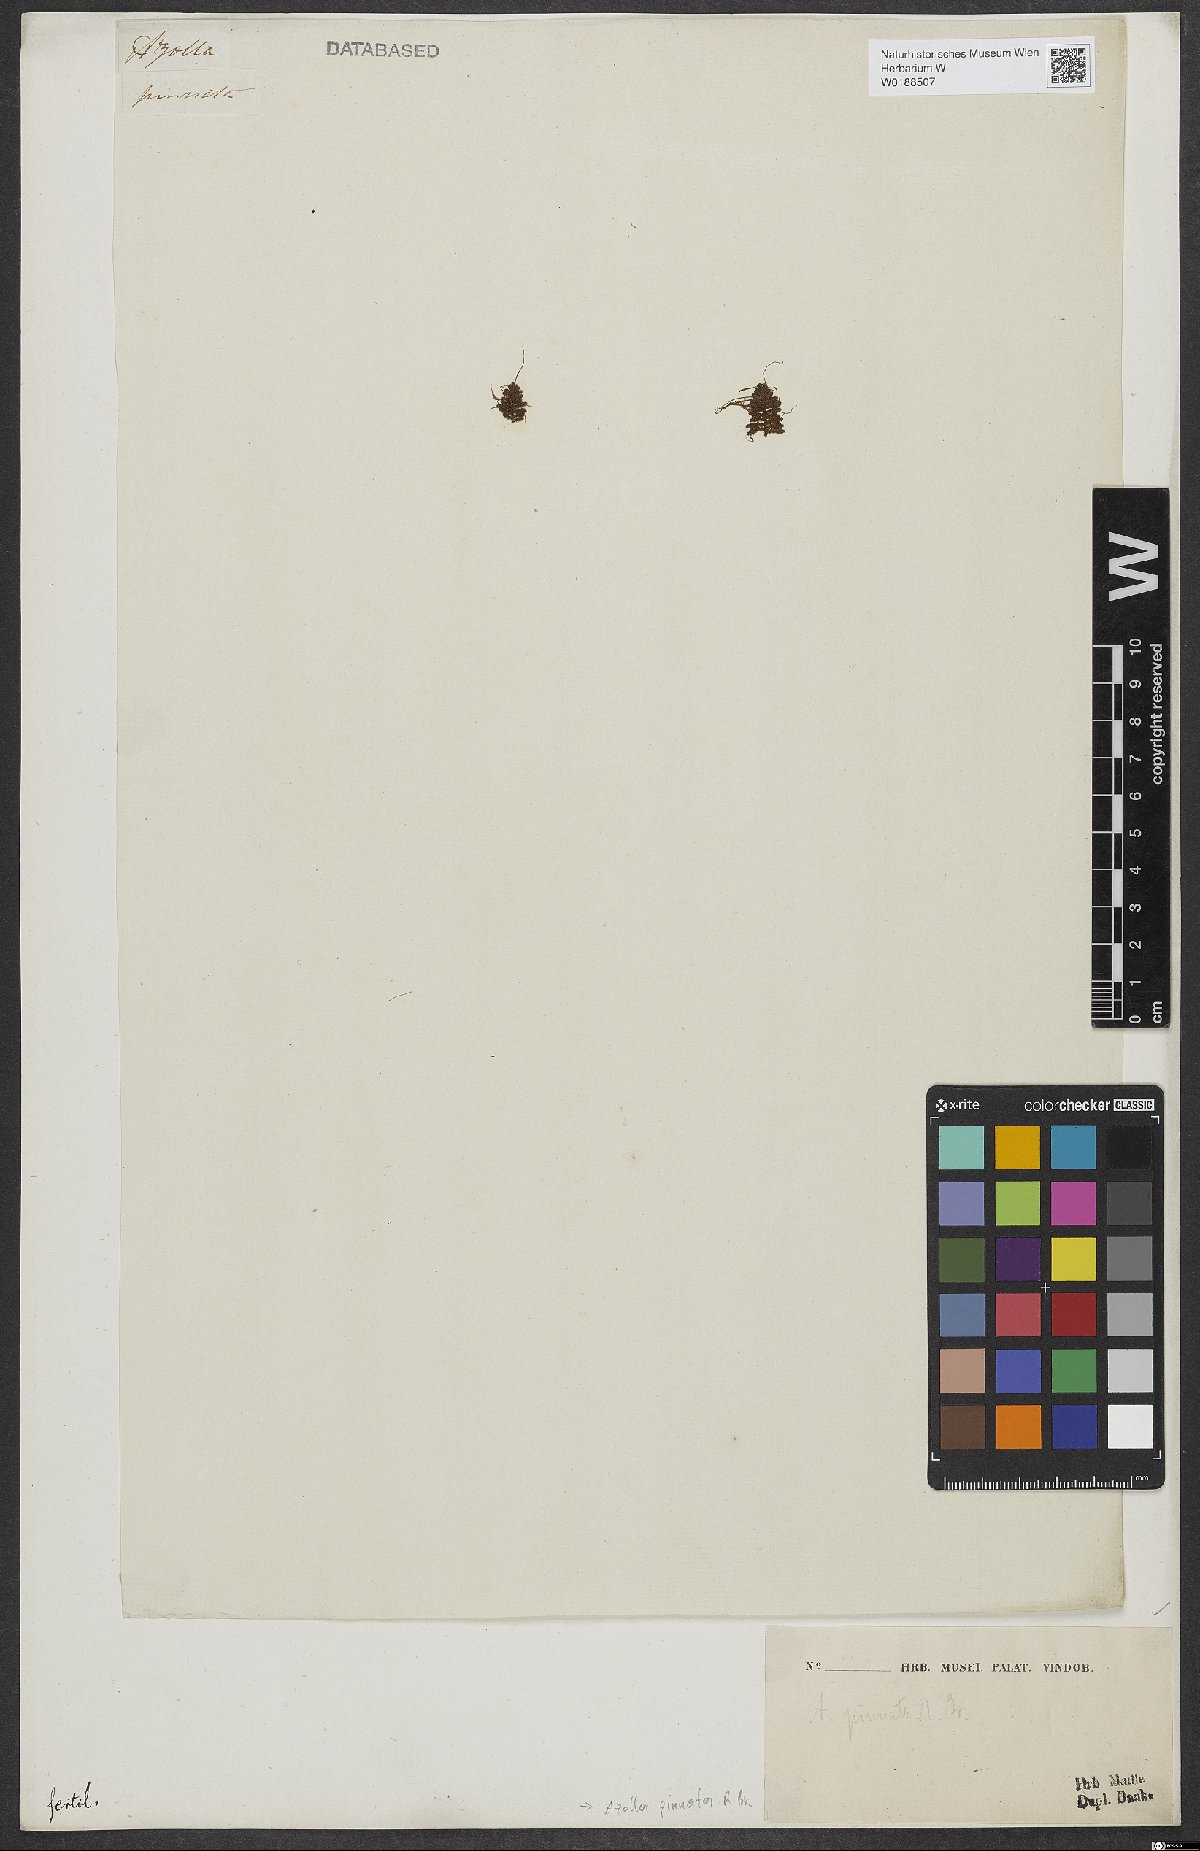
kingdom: Plantae
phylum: Tracheophyta
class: Polypodiopsida
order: Salviniales
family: Salviniaceae
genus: Azolla
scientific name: Azolla pinnata
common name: Ferny azolla
